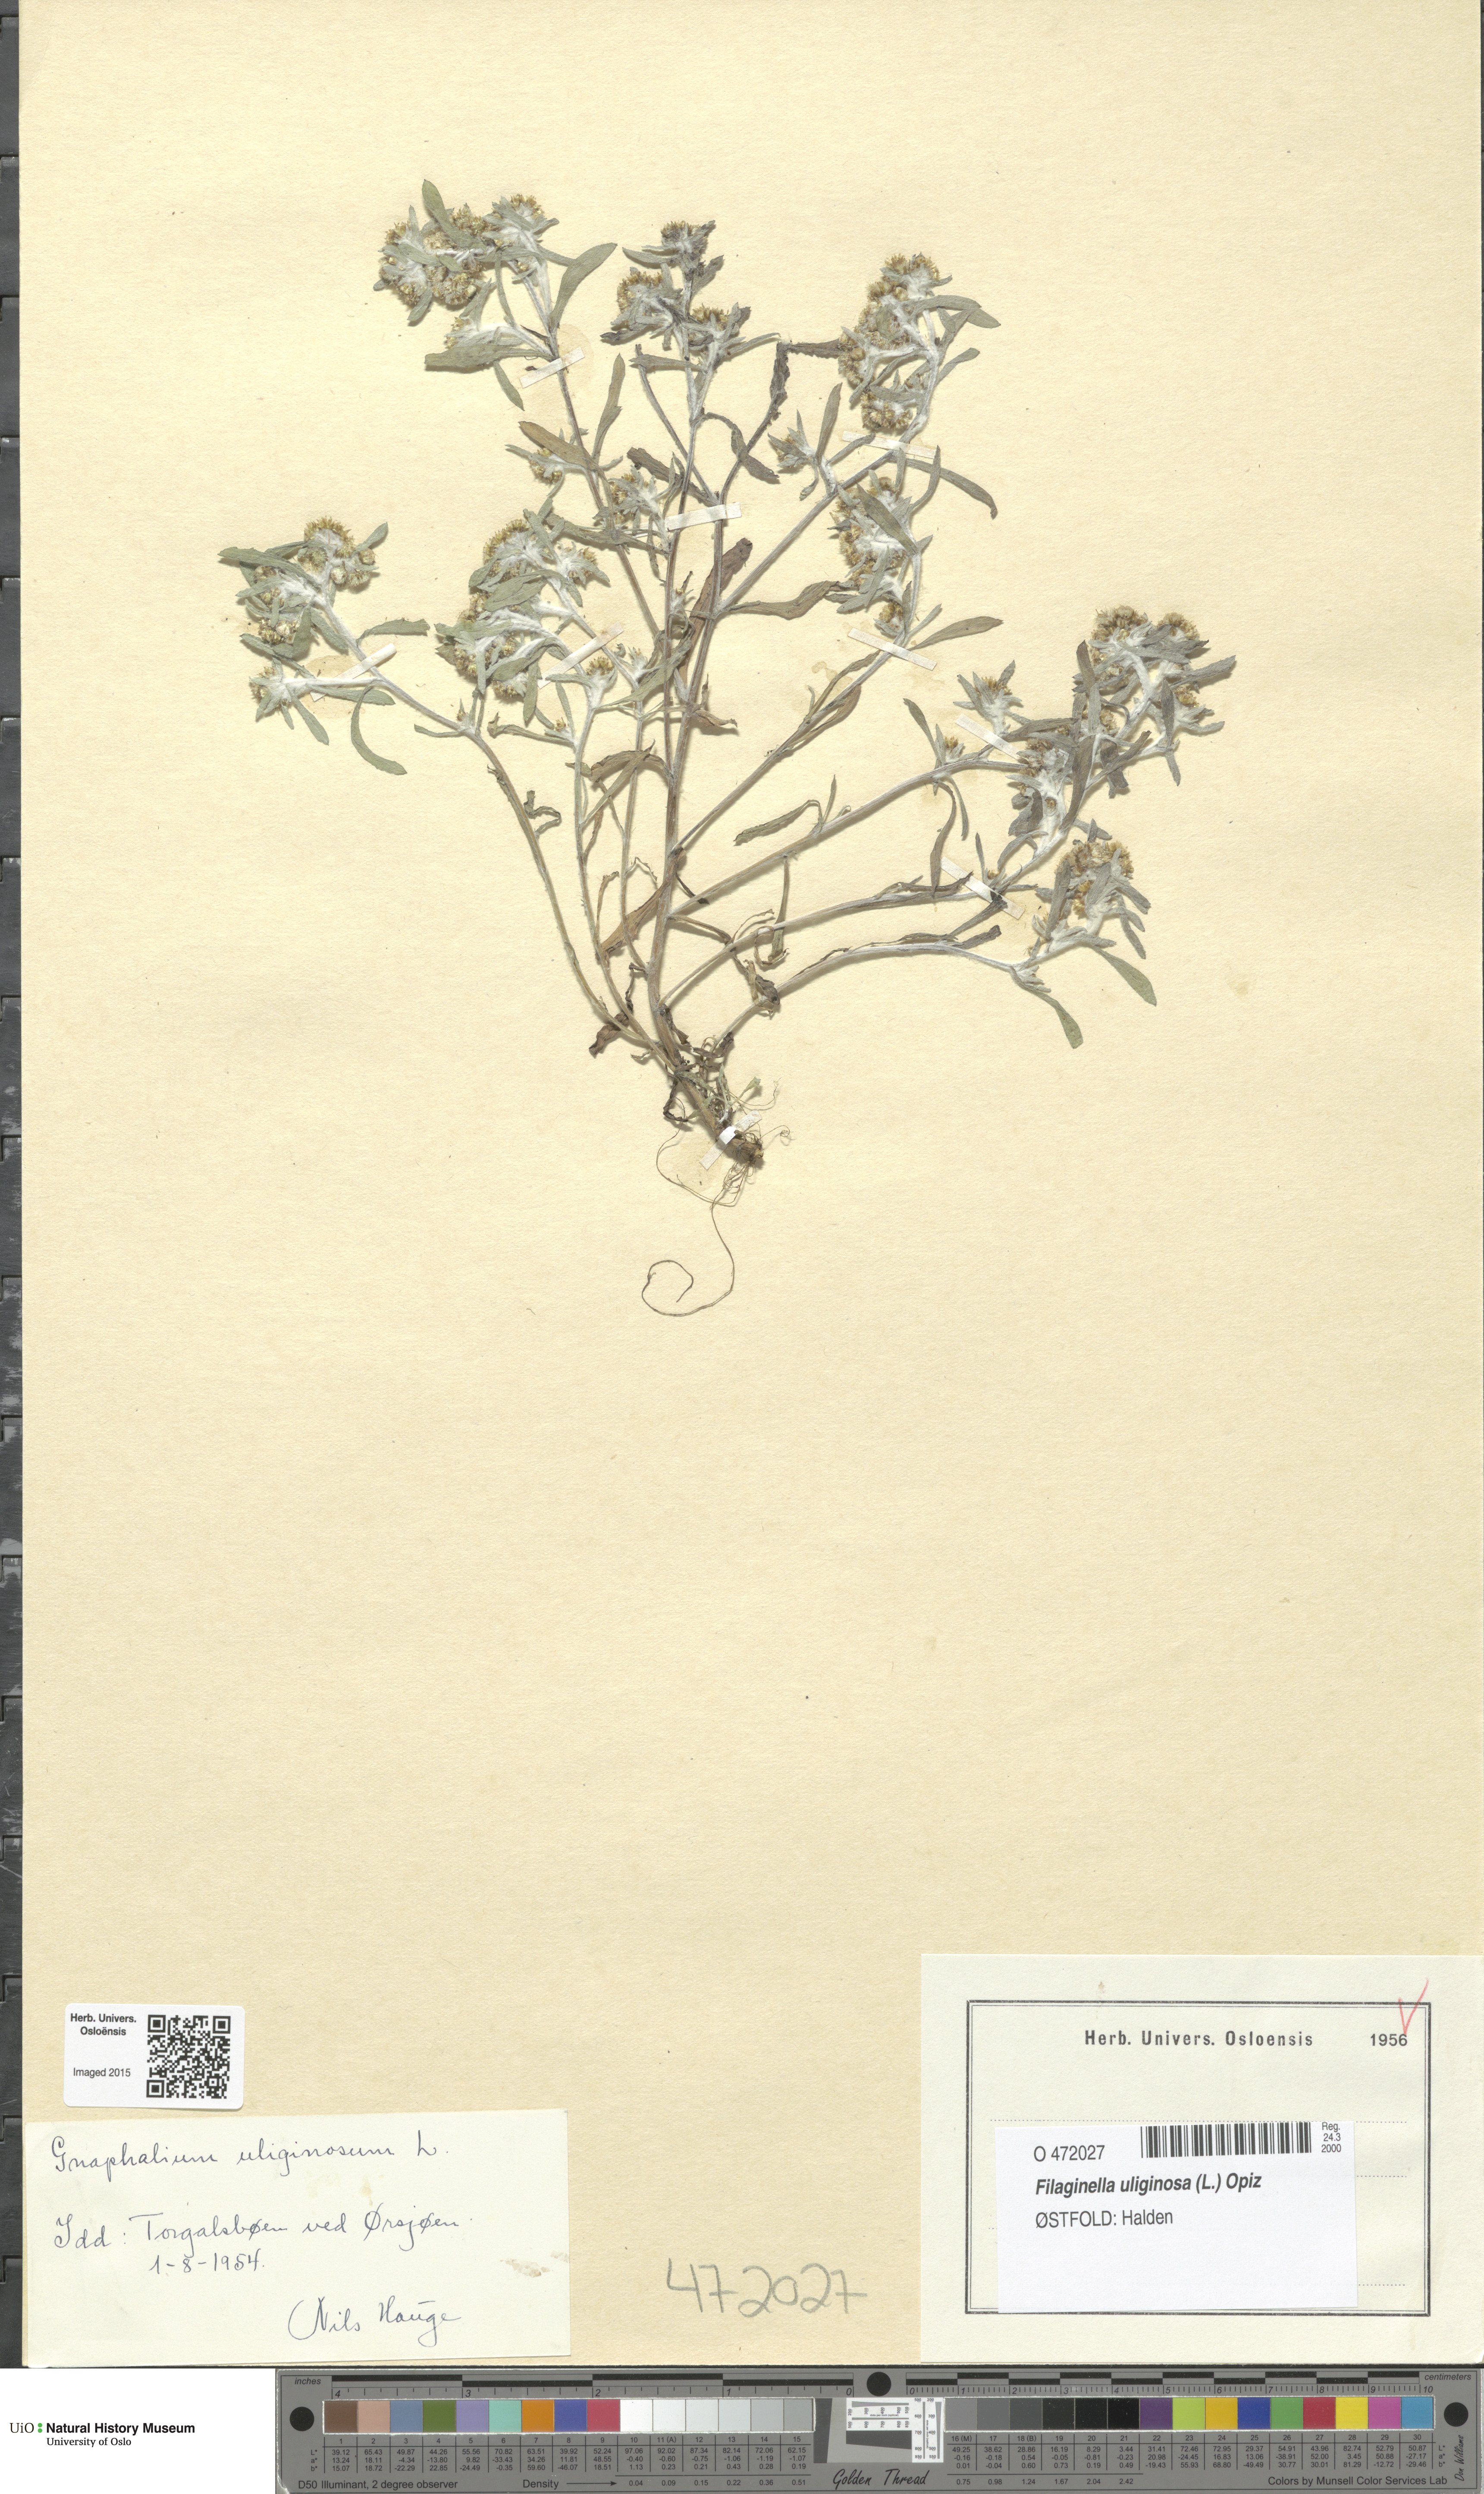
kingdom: Plantae
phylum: Tracheophyta
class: Magnoliopsida
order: Asterales
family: Asteraceae
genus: Gnaphalium
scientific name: Gnaphalium uliginosum
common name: Marsh cudweed
